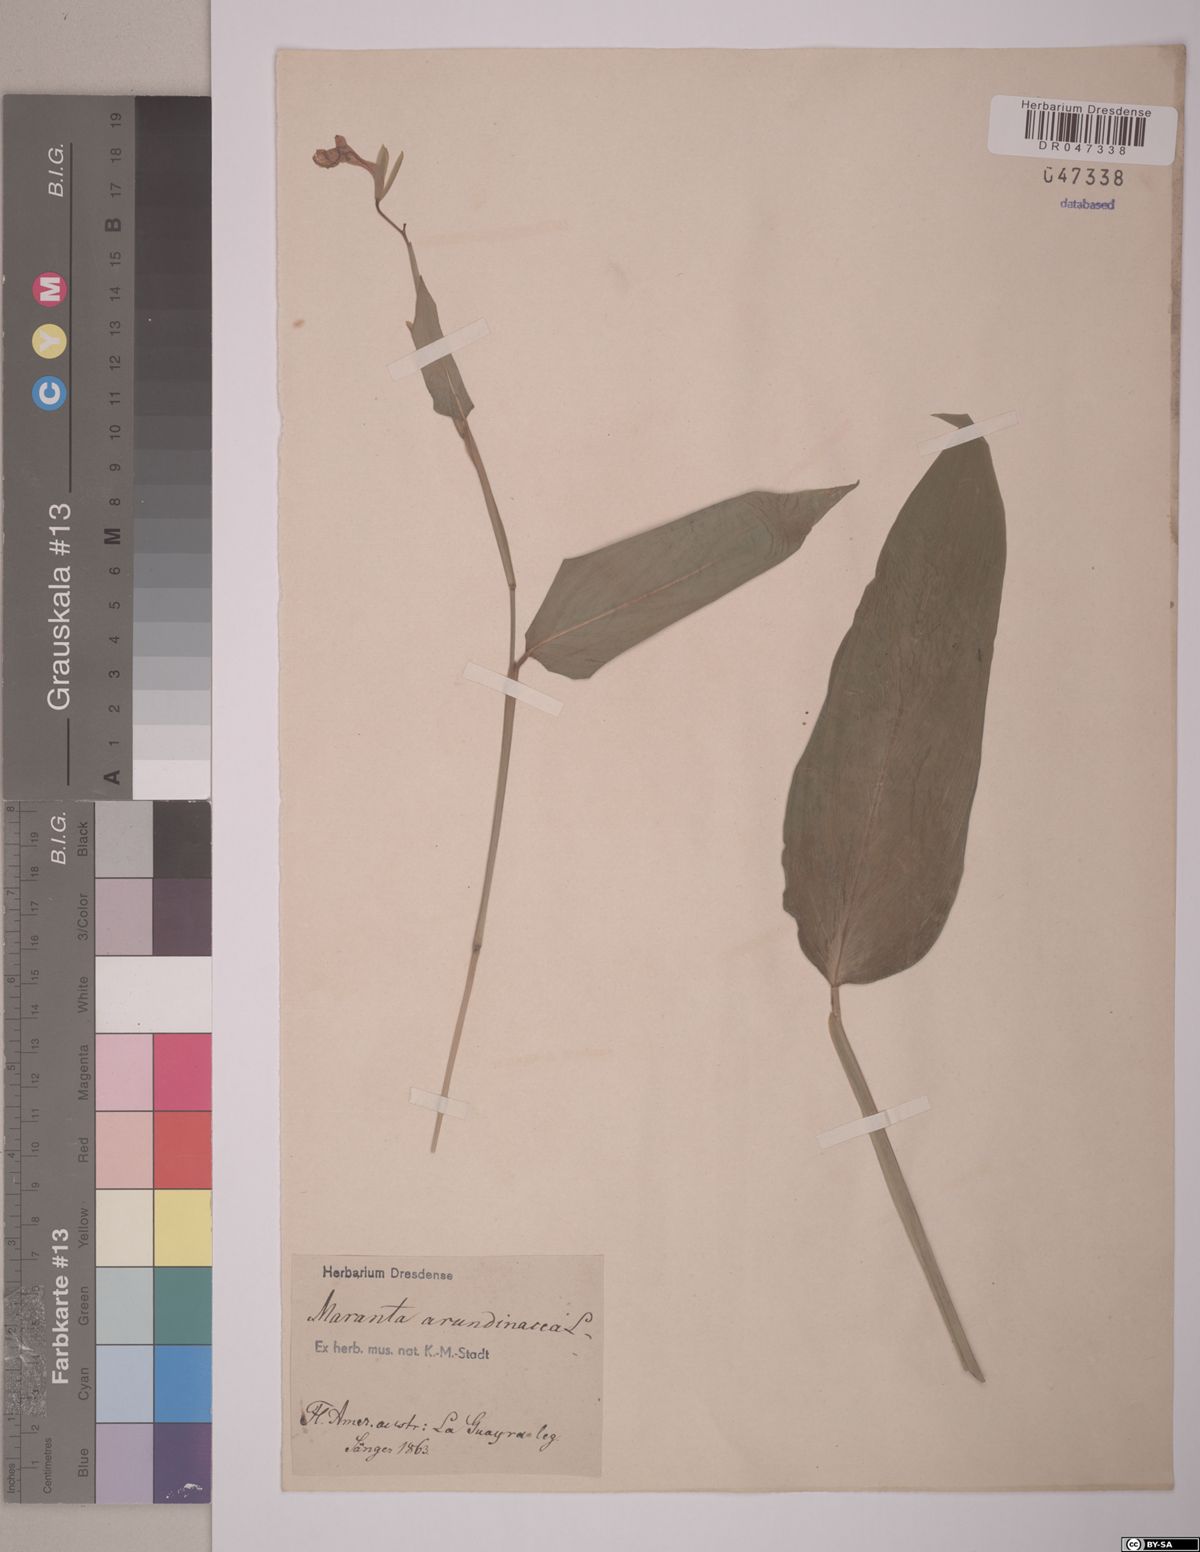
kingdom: Plantae
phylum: Tracheophyta
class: Liliopsida
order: Zingiberales
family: Marantaceae
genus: Maranta
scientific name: Maranta arundinacea
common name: Arrowroot
